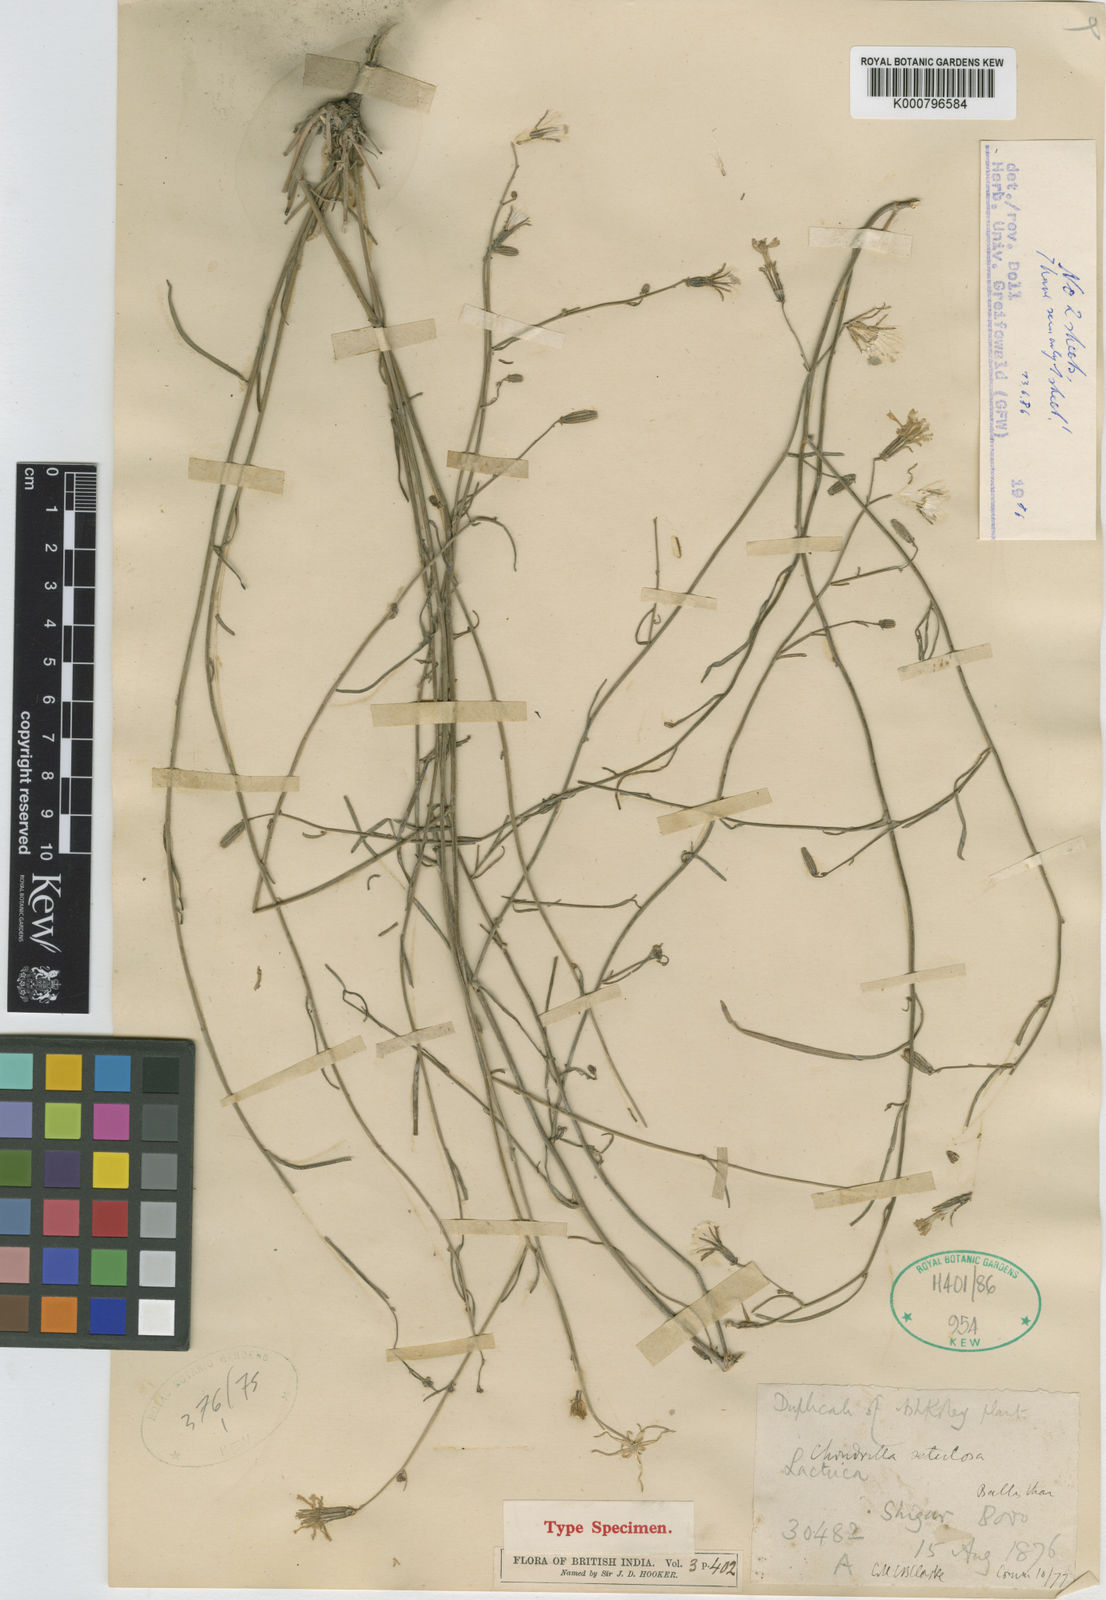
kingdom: Plantae
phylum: Tracheophyta
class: Magnoliopsida
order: Asterales
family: Asteraceae
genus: Chondrilla
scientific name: Chondrilla maracandica
